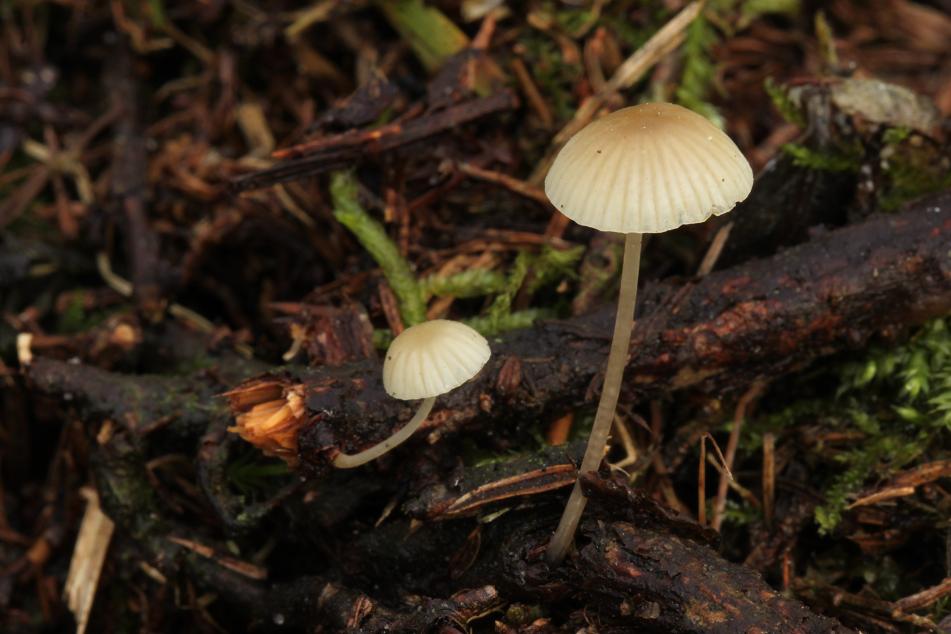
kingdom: Fungi
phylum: Basidiomycota
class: Agaricomycetes
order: Agaricales
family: Mycenaceae
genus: Mycena
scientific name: Mycena arcangeliana
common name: oliven-huesvamp
